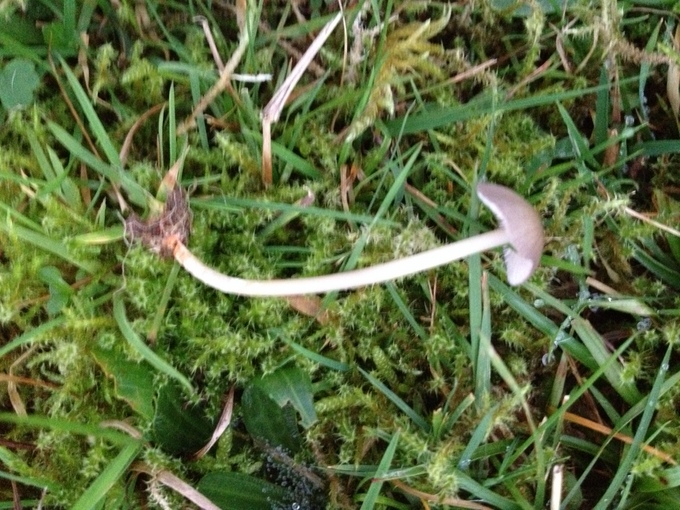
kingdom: Fungi
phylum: Basidiomycota
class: Agaricomycetes
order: Agaricales
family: Entolomataceae
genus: Entoloma
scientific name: Entoloma exile
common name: rødplettet rødblad
